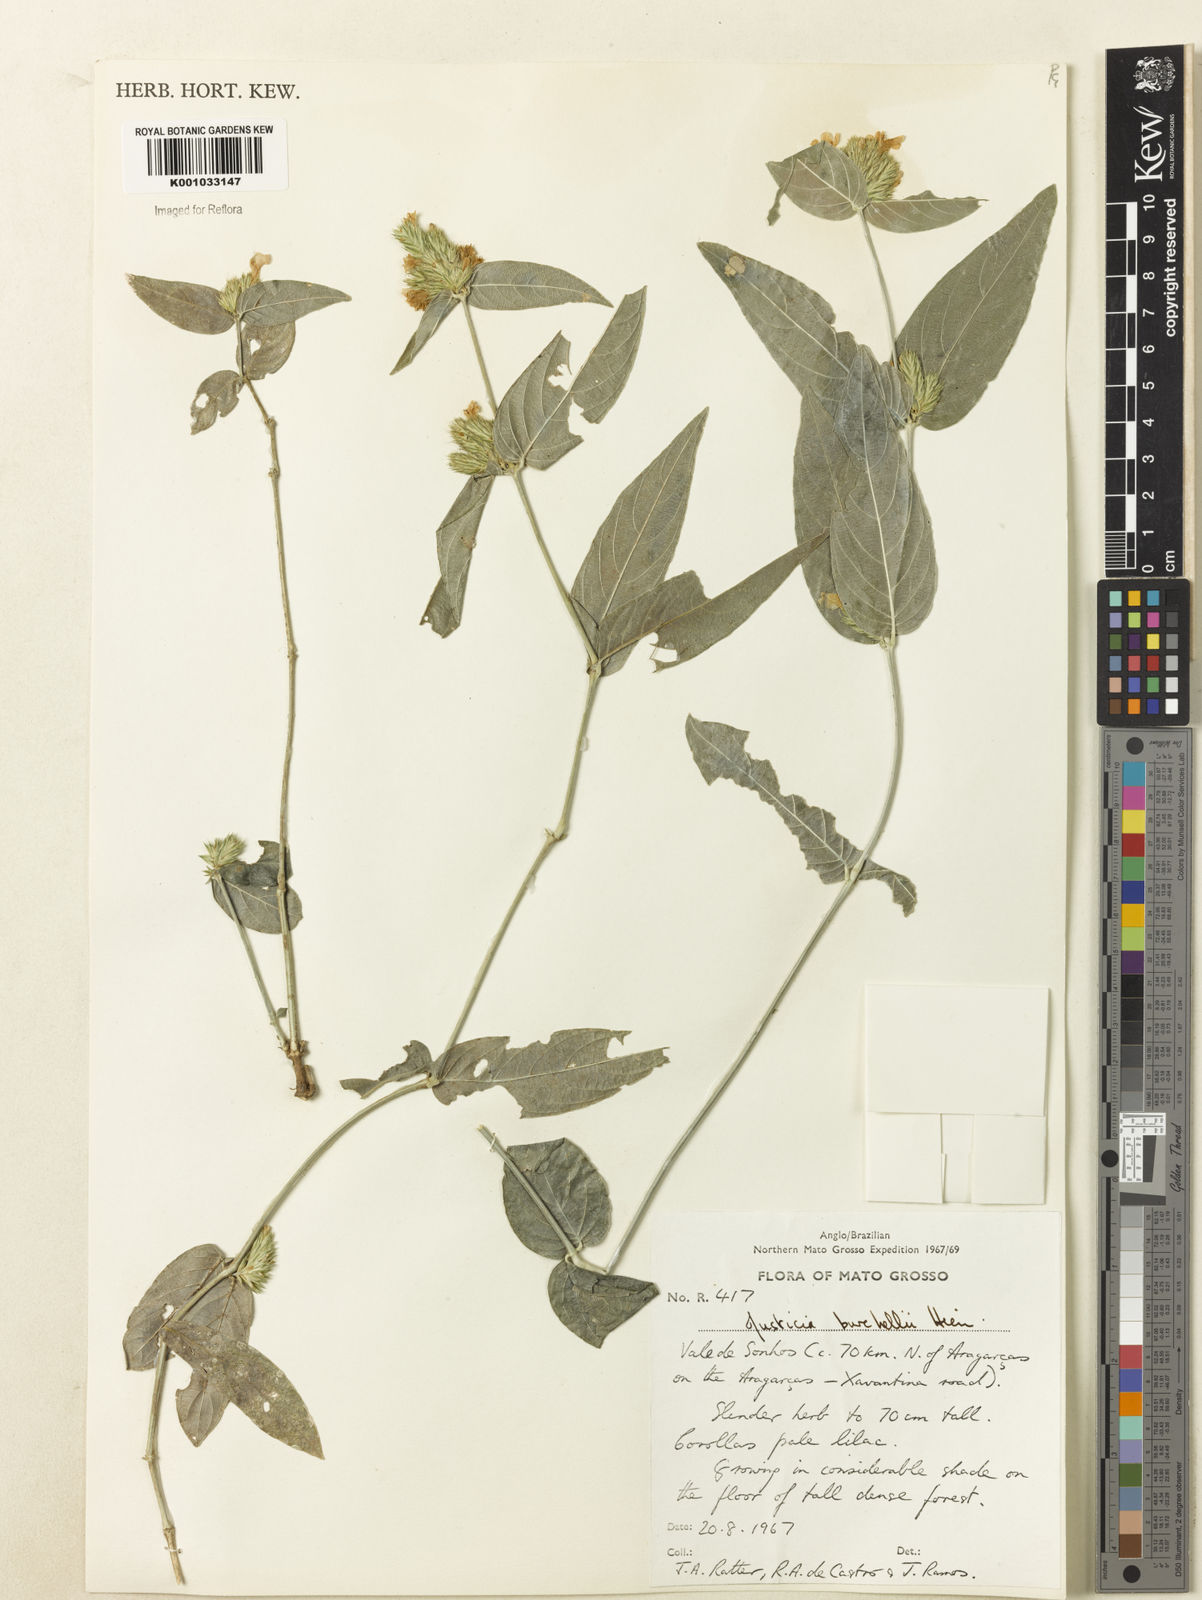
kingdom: Plantae
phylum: Tracheophyta
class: Magnoliopsida
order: Lamiales
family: Acanthaceae
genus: Justicia
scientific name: Justicia burchellii
